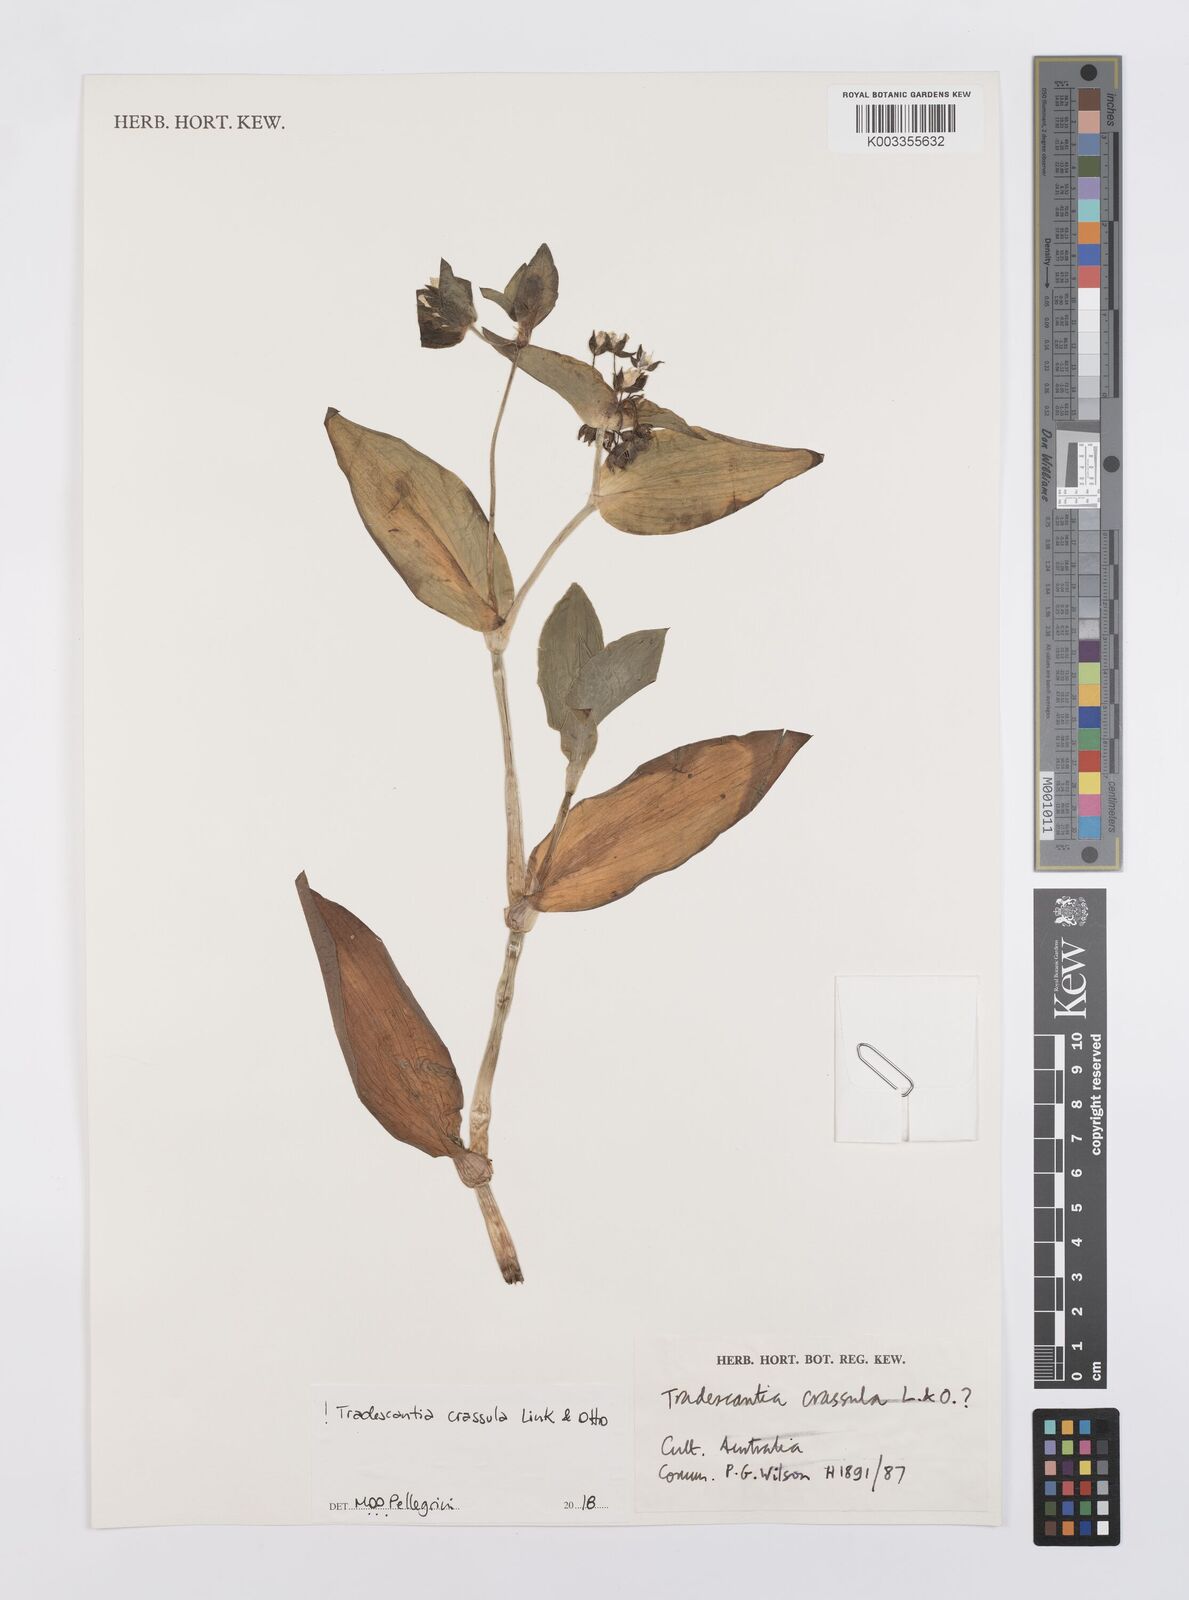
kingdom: Plantae
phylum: Tracheophyta
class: Liliopsida
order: Commelinales
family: Commelinaceae
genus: Tradescantia
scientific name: Tradescantia crassula
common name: Succulent spiderwort
